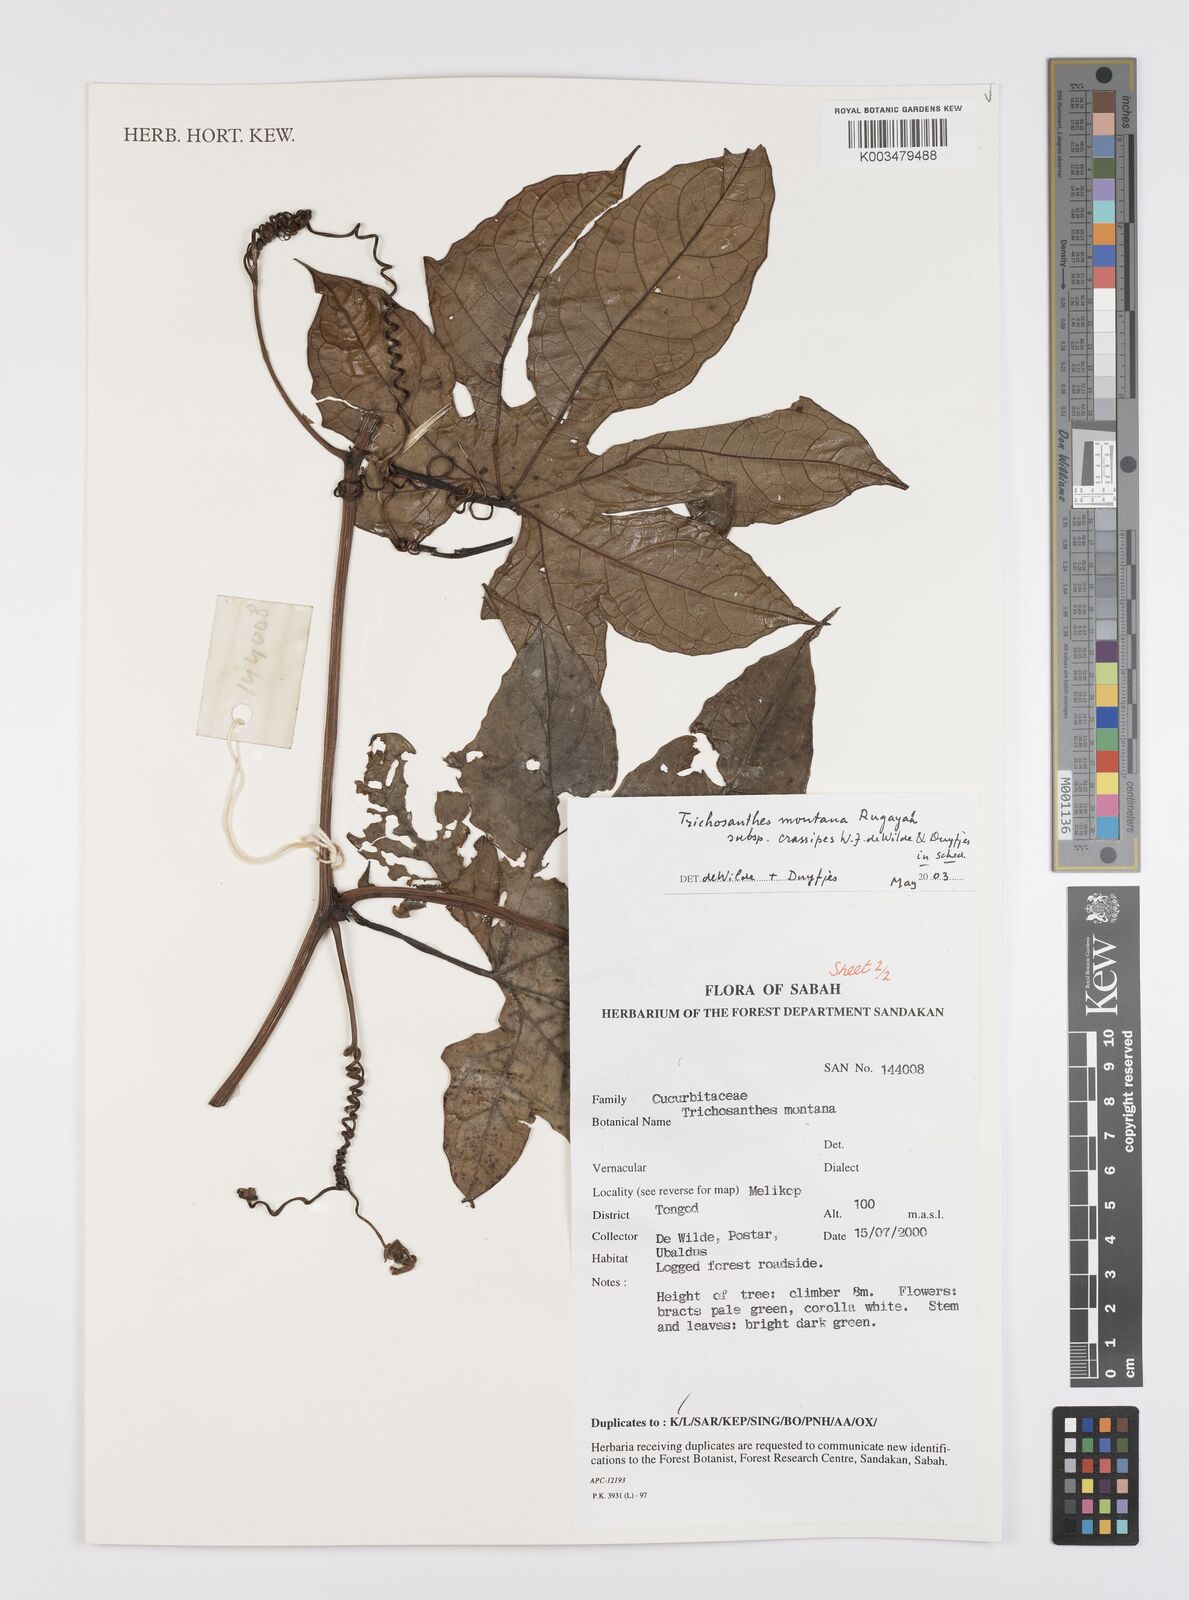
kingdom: Plantae
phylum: Tracheophyta
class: Magnoliopsida
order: Cucurbitales
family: Cucurbitaceae
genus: Trichosanthes
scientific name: Trichosanthes
